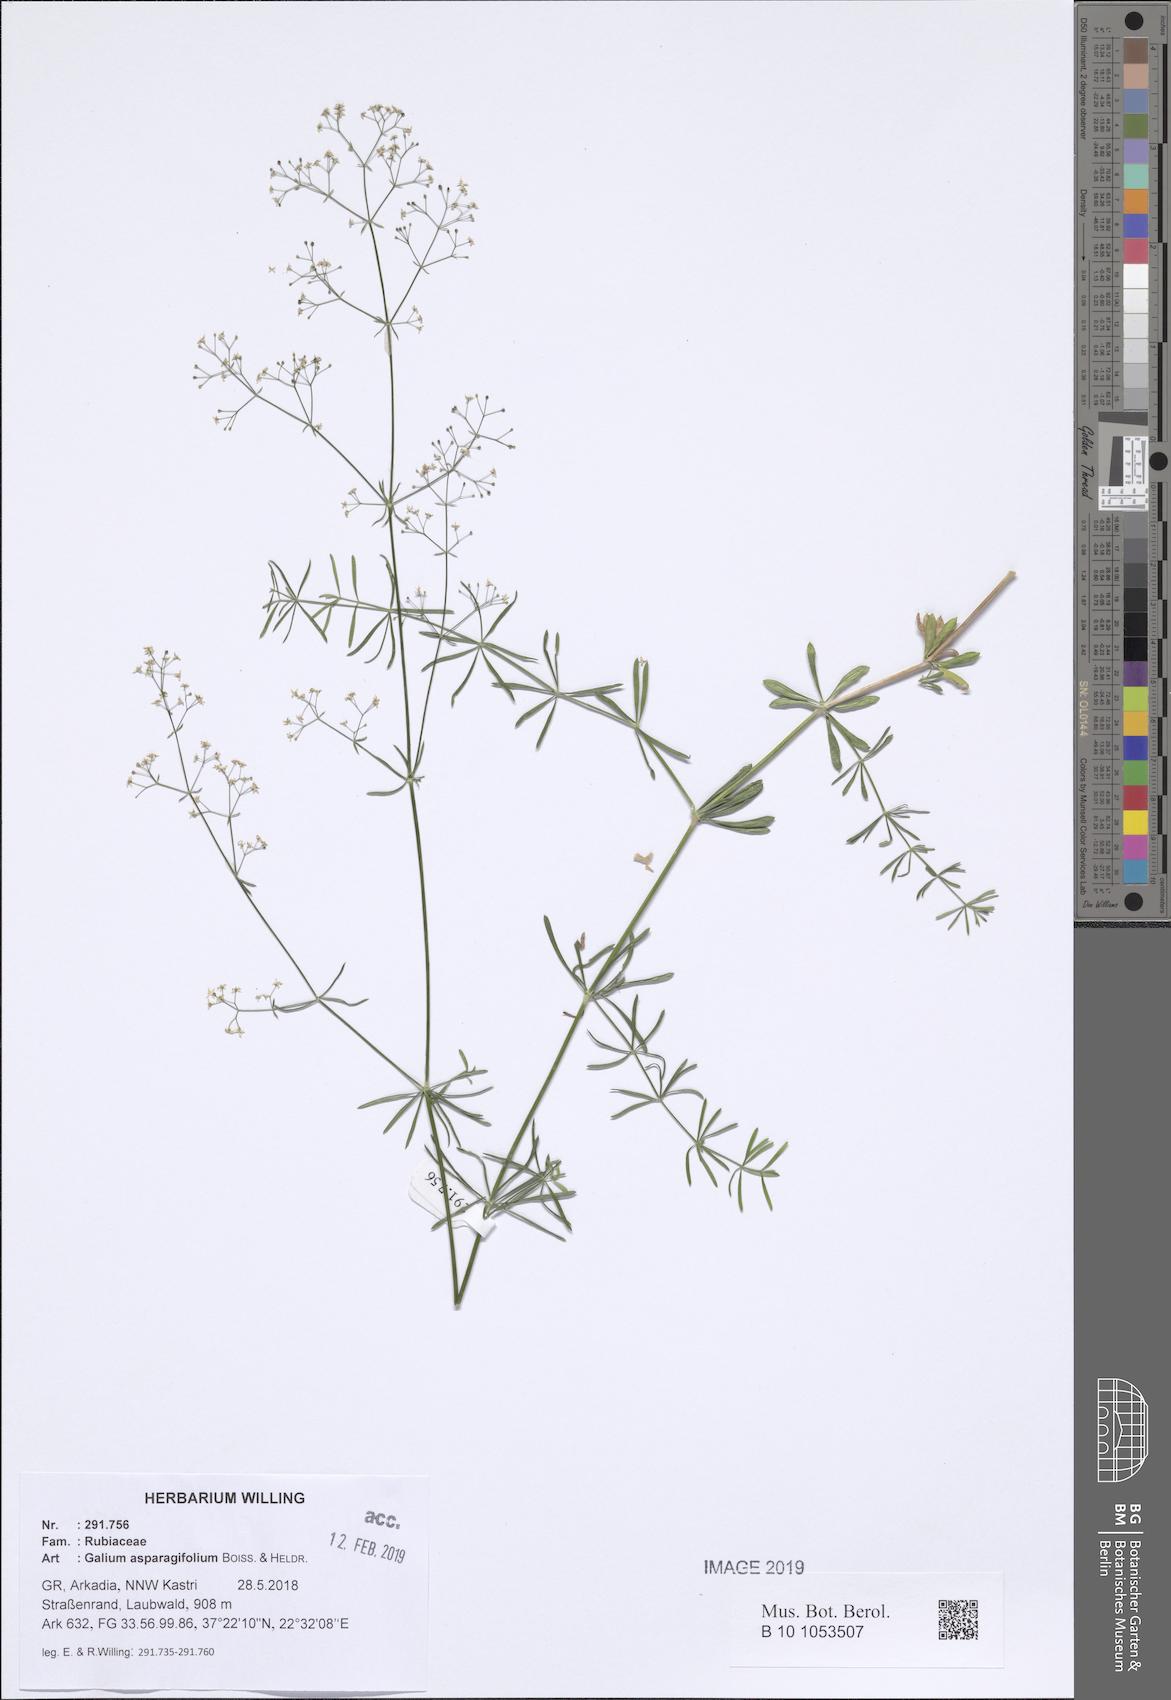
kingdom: Plantae
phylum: Tracheophyta
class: Magnoliopsida
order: Gentianales
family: Rubiaceae
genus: Galium
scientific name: Galium asparagifolium
